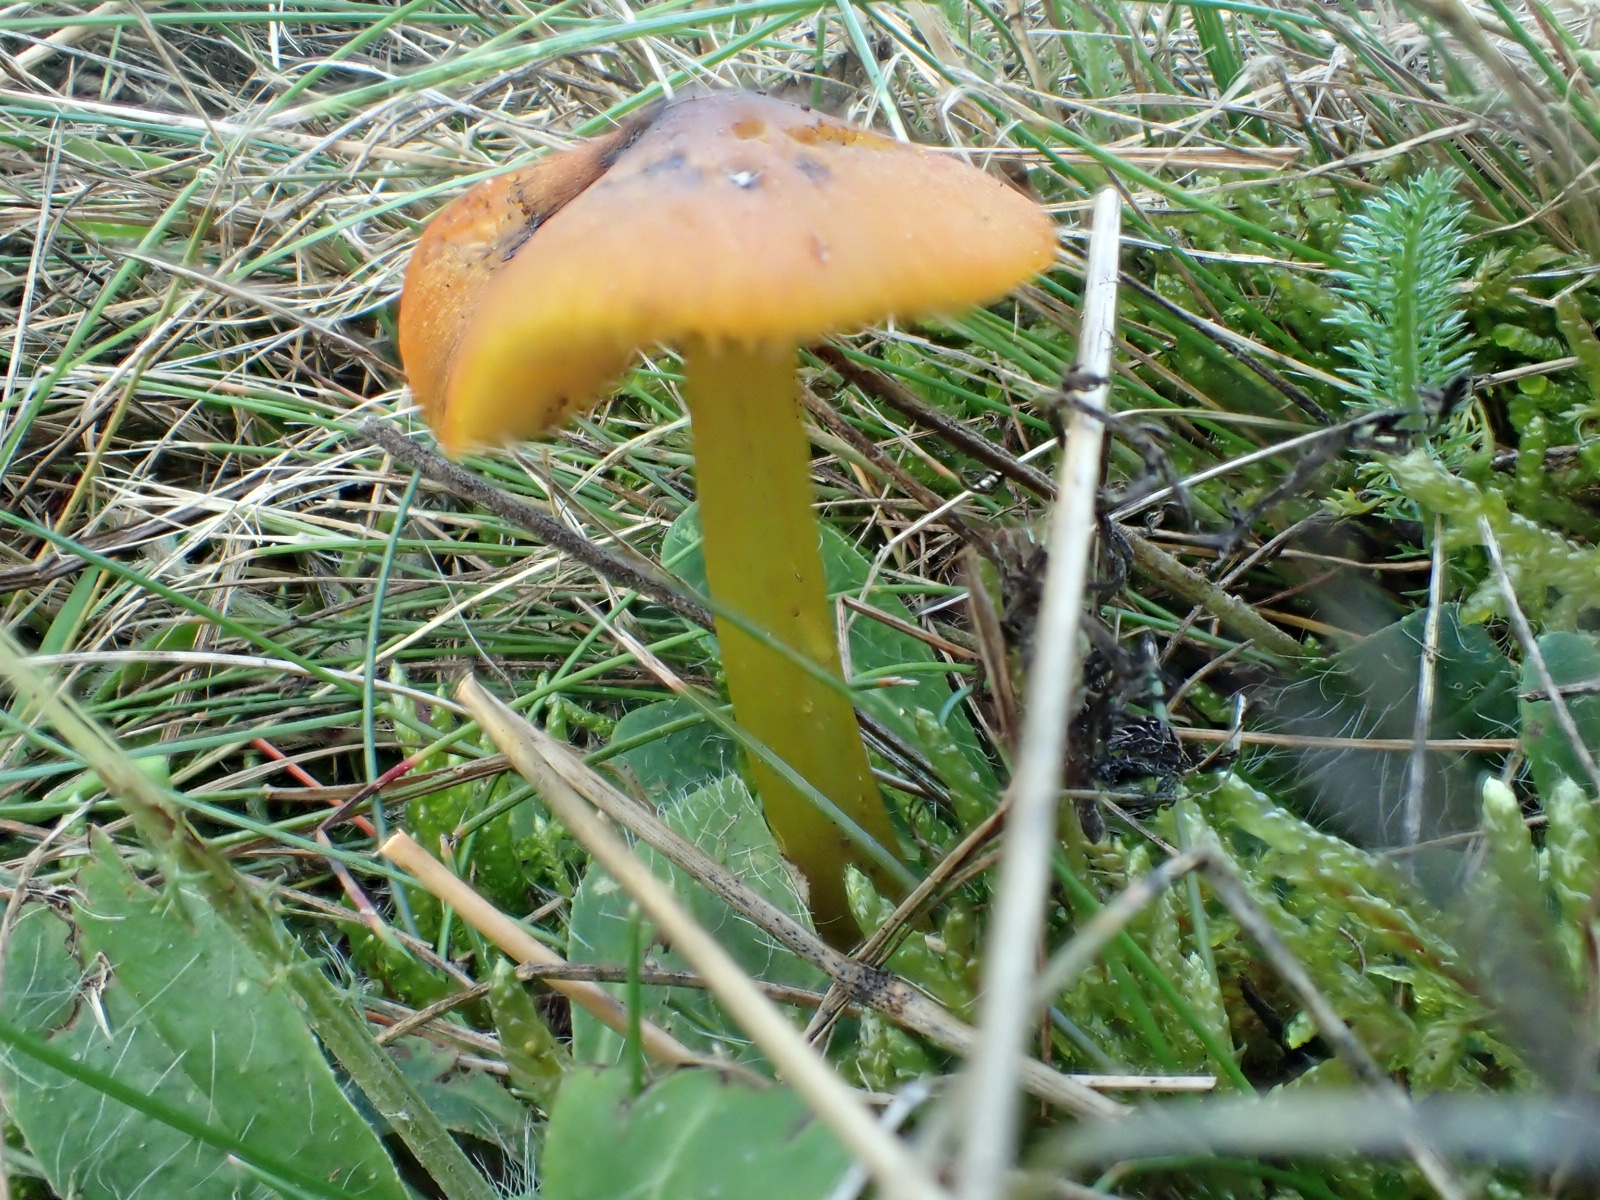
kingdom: Fungi
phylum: Basidiomycota
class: Agaricomycetes
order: Agaricales
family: Hygrophoraceae
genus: Hygrocybe
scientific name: Hygrocybe conica
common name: kegle-vokshat
